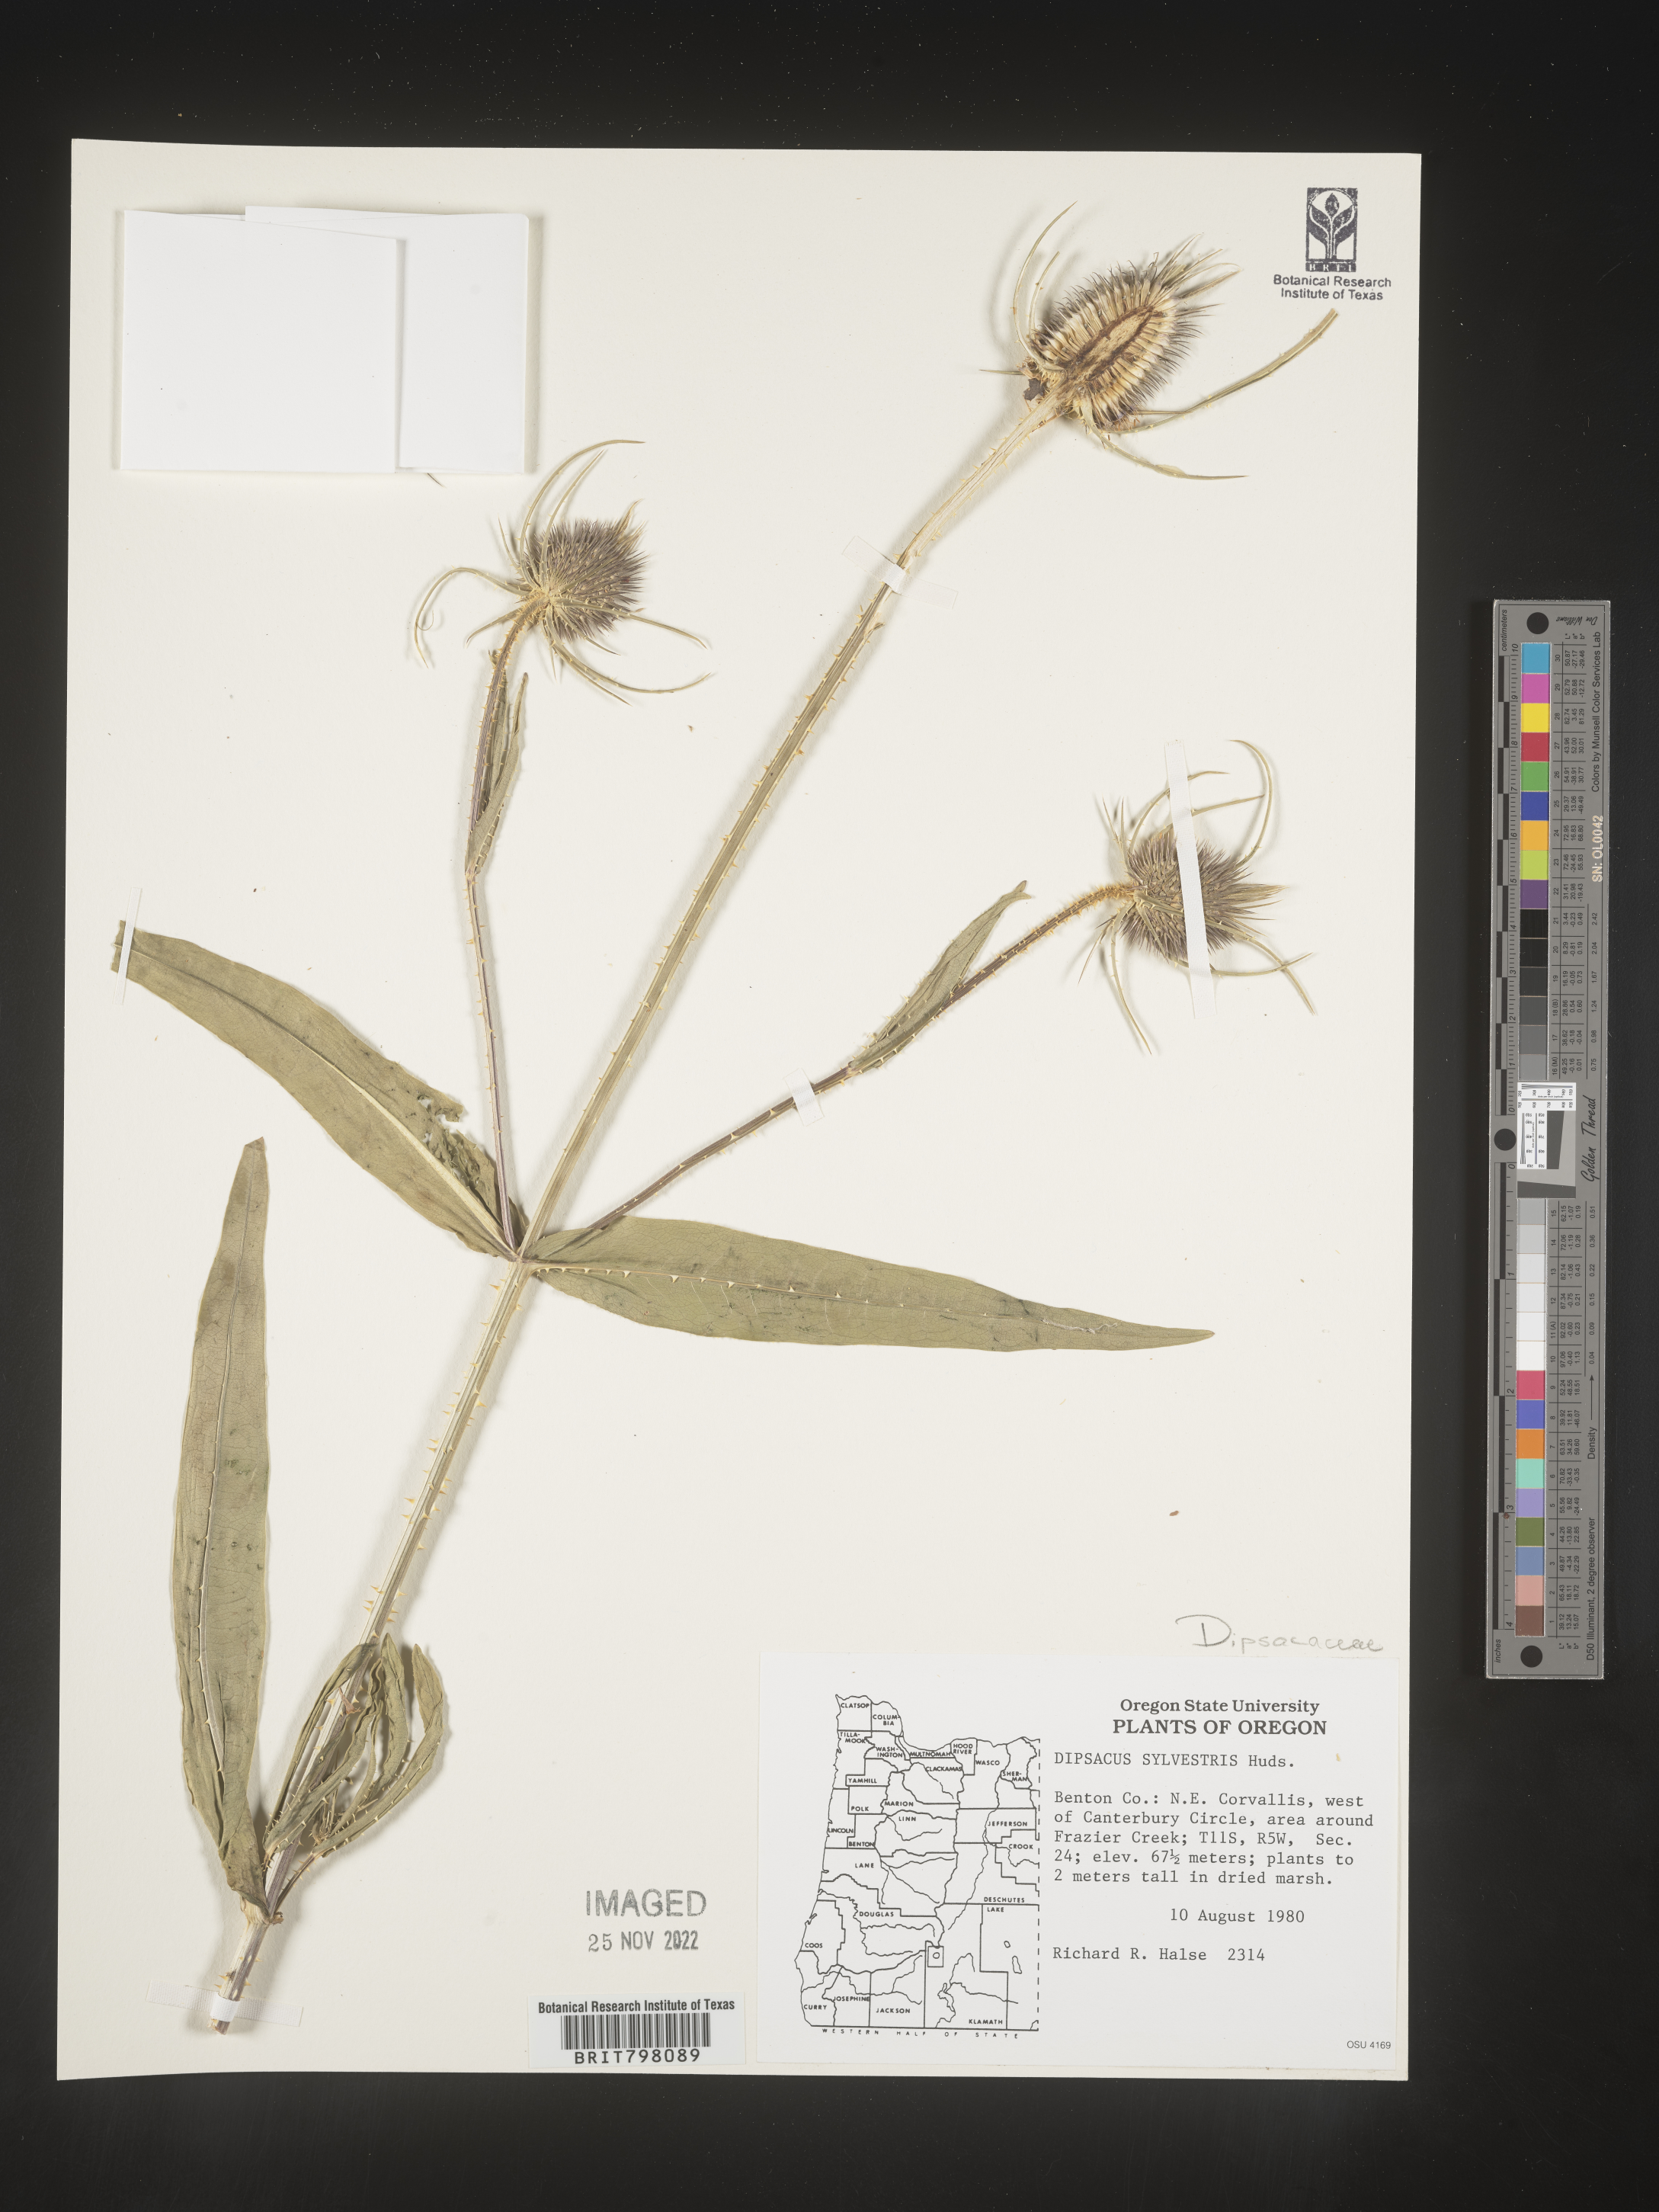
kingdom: Plantae
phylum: Tracheophyta
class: Magnoliopsida
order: Dipsacales
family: Caprifoliaceae
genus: Dipsacus
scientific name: Dipsacus fullonum
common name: Teasel
